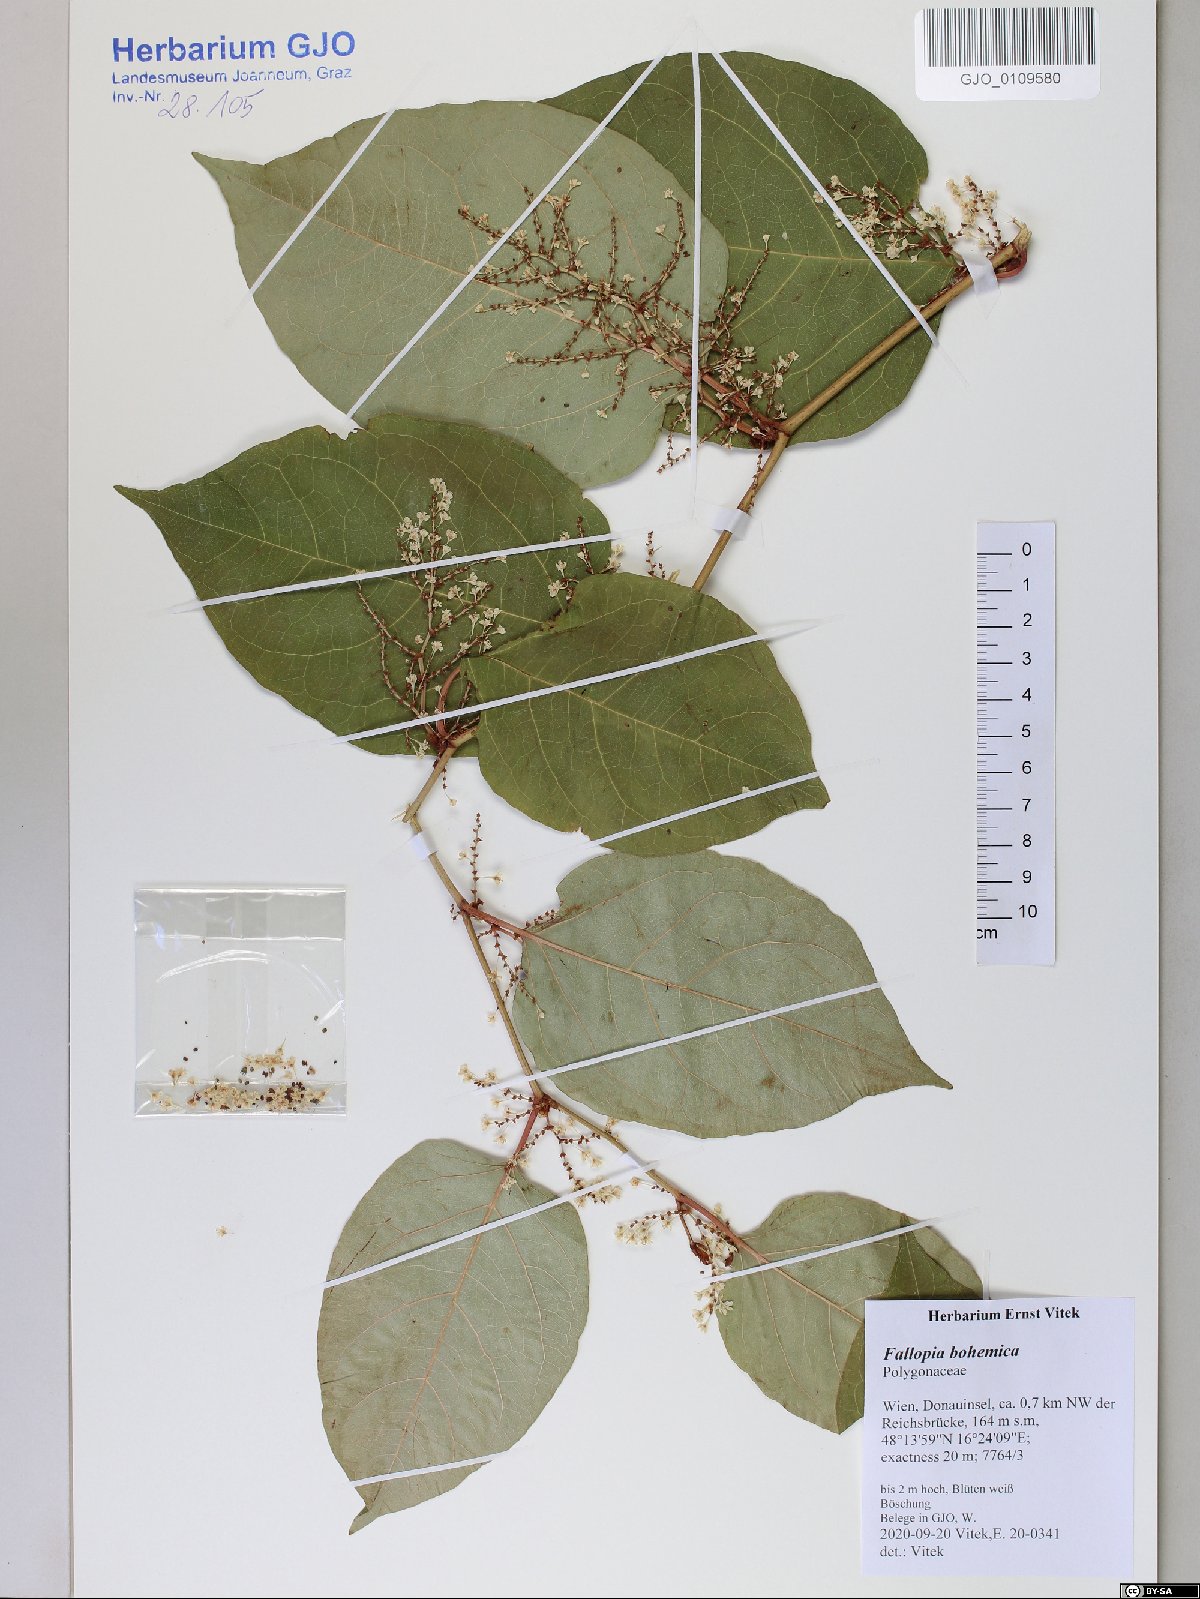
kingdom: Plantae
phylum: Tracheophyta
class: Magnoliopsida
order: Caryophyllales
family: Polygonaceae
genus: Reynoutria
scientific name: Reynoutria bohemica
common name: Bohemian knotweed
